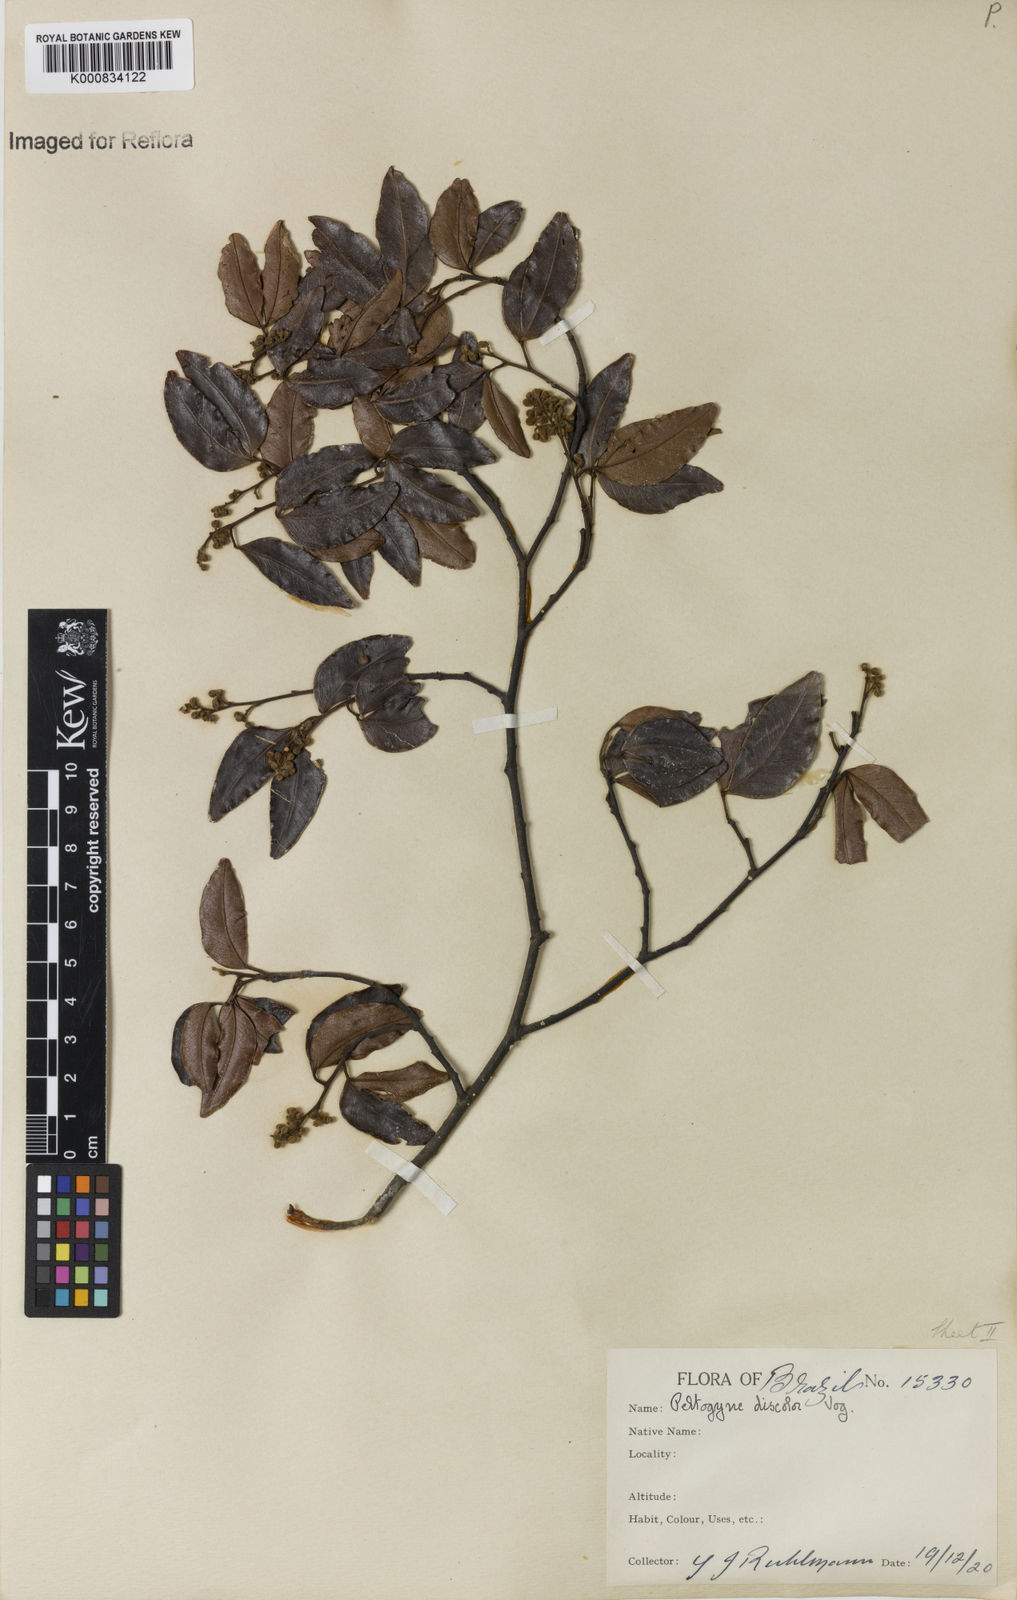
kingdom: Plantae
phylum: Tracheophyta
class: Magnoliopsida
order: Fabales
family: Fabaceae
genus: Peltogyne
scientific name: Peltogyne discolor
